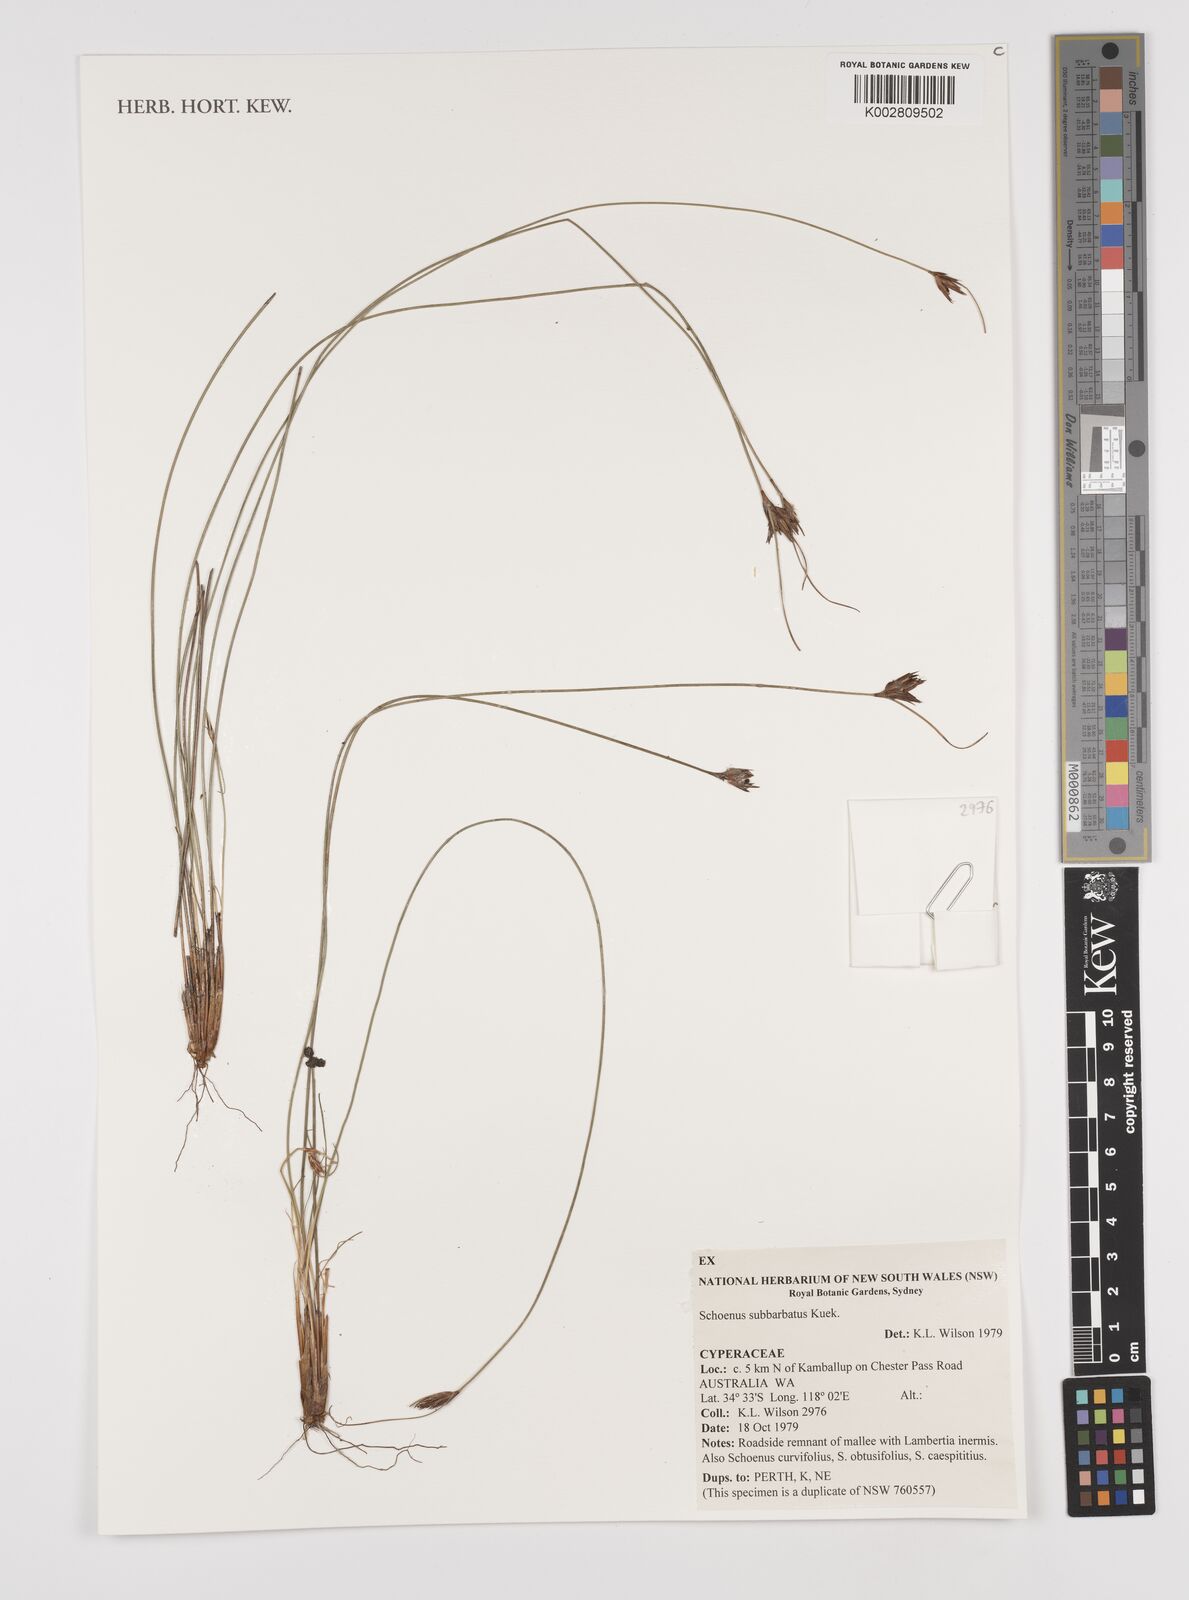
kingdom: Plantae
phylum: Tracheophyta
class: Liliopsida
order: Poales
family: Cyperaceae
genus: Schoenus
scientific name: Schoenus subbarbatus
